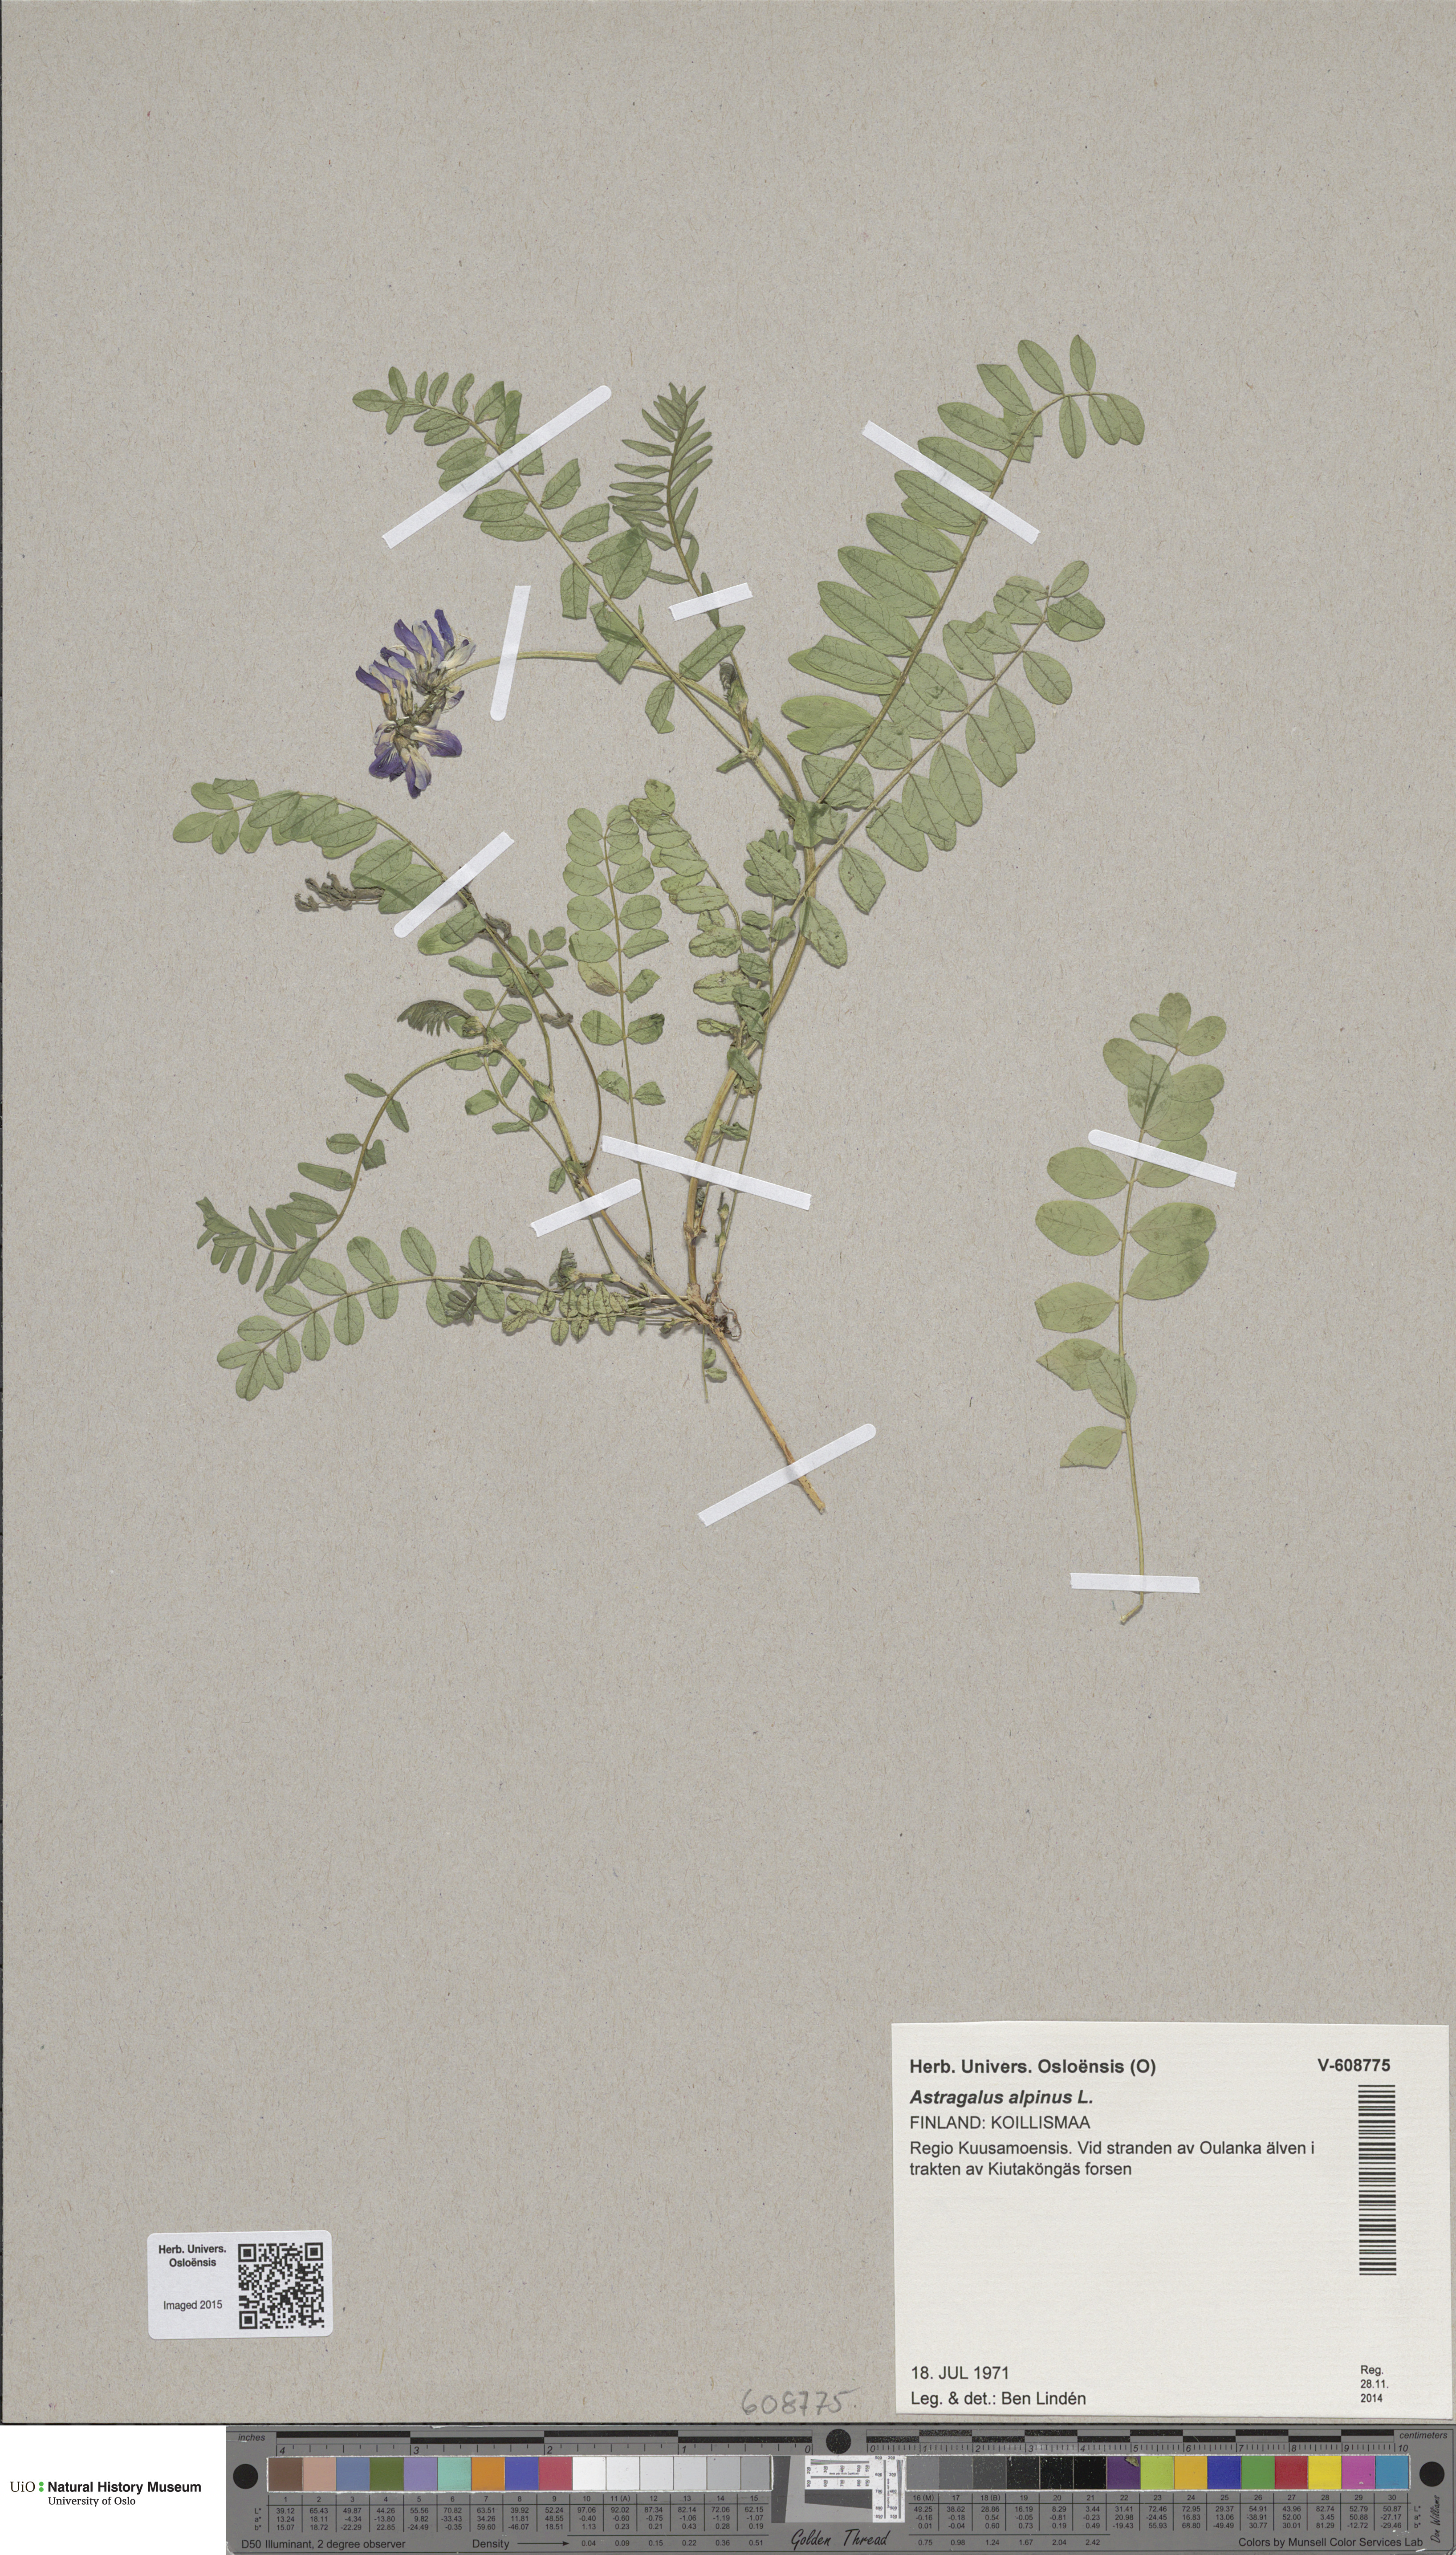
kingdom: Plantae
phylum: Tracheophyta
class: Magnoliopsida
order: Fabales
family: Fabaceae
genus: Astragalus
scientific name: Astragalus norvegicus
